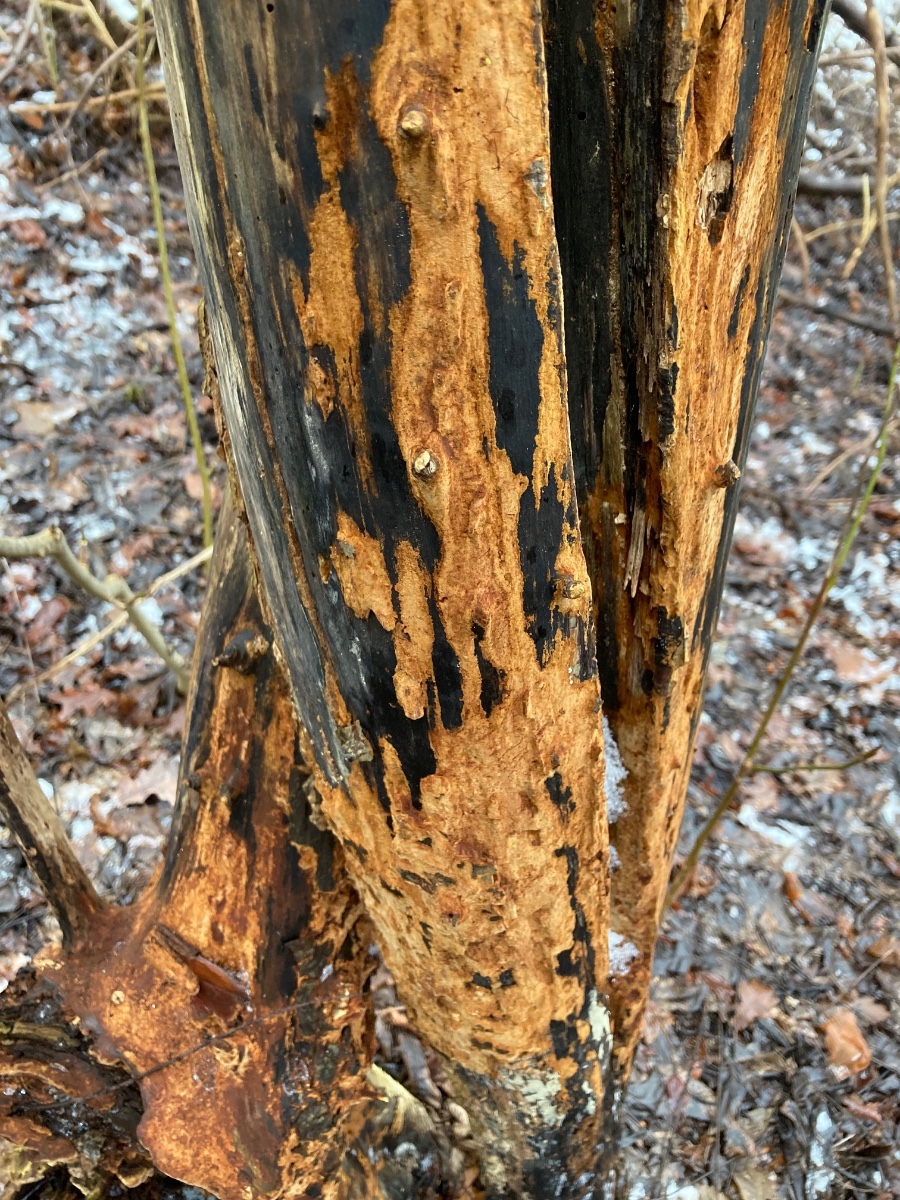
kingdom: Fungi
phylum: Basidiomycota
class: Agaricomycetes
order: Hymenochaetales
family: Hymenochaetaceae
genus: Fuscoporia
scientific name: Fuscoporia ferruginosa
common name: rustbrun ildporesvamp
